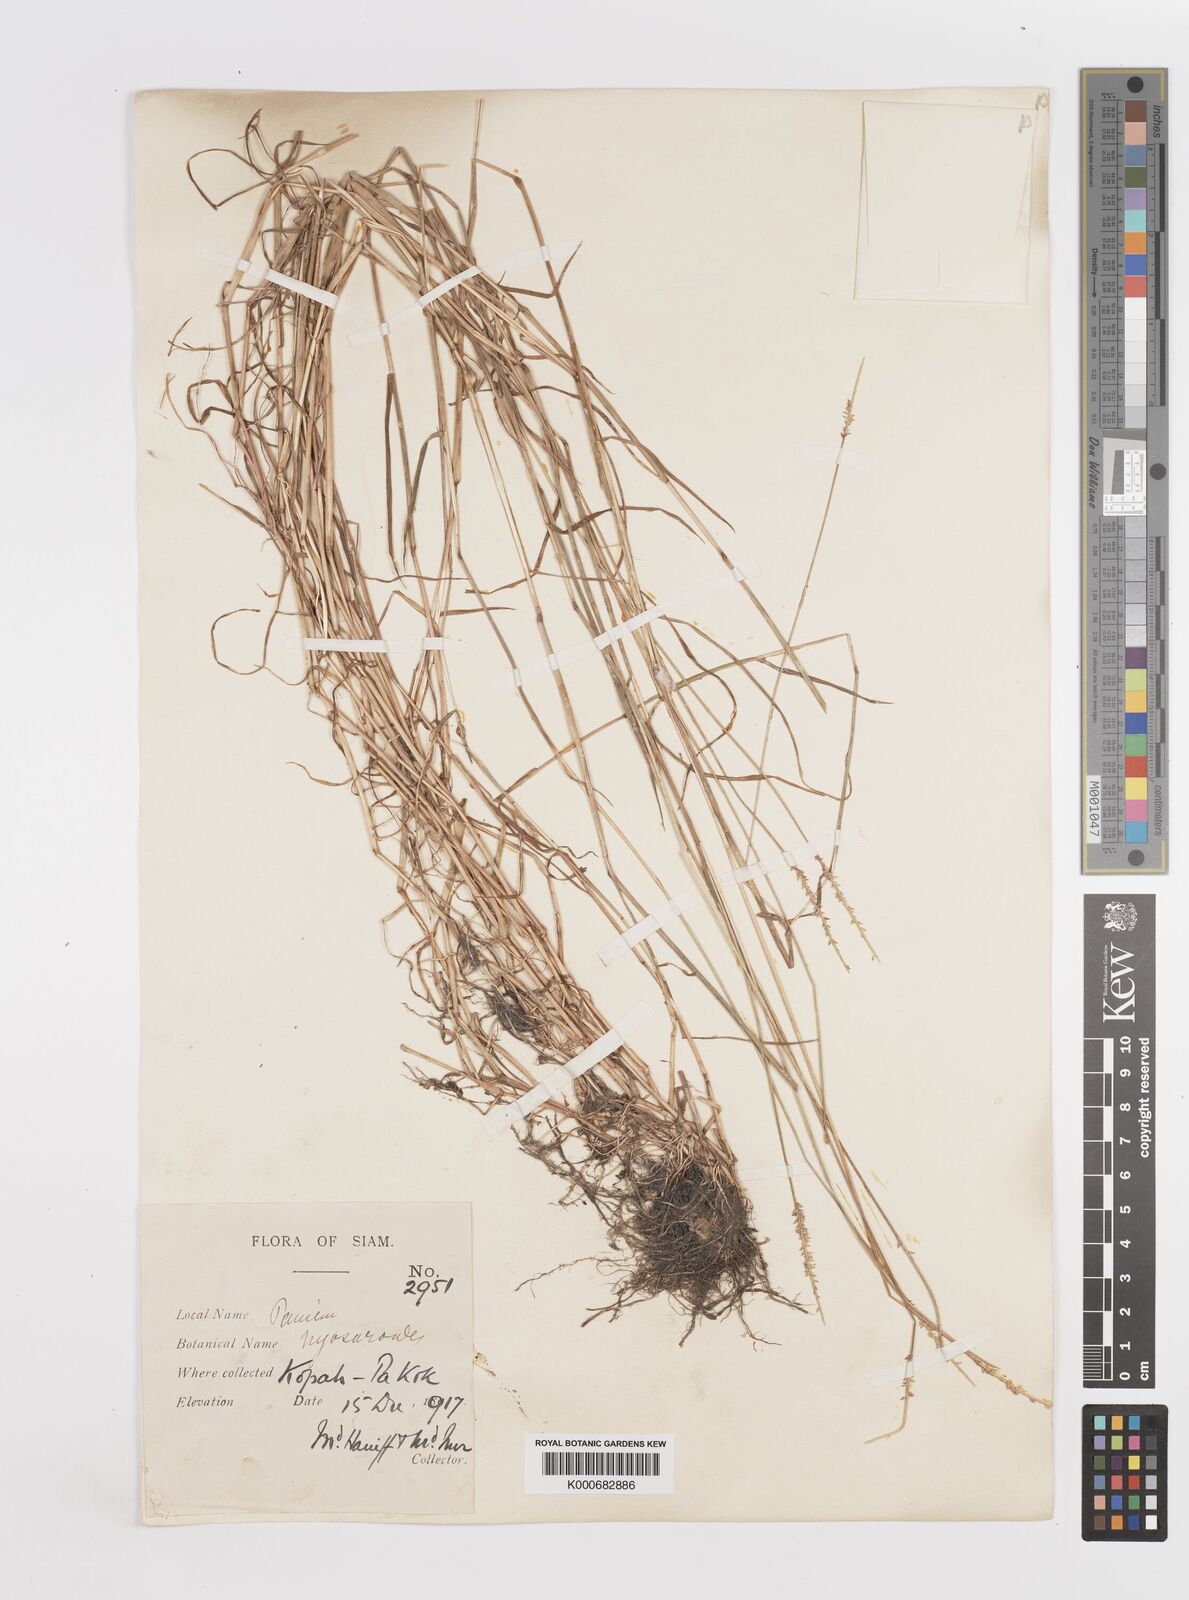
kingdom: Plantae
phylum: Tracheophyta
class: Liliopsida
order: Poales
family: Poaceae
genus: Sacciolepis
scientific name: Sacciolepis myosuroides
